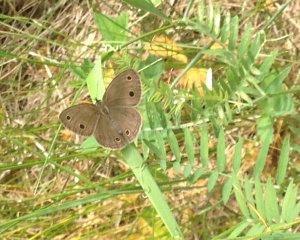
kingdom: Animalia
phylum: Arthropoda
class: Insecta
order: Lepidoptera
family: Nymphalidae
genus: Euptychia
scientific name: Euptychia cymela
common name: Little Wood Satyr
